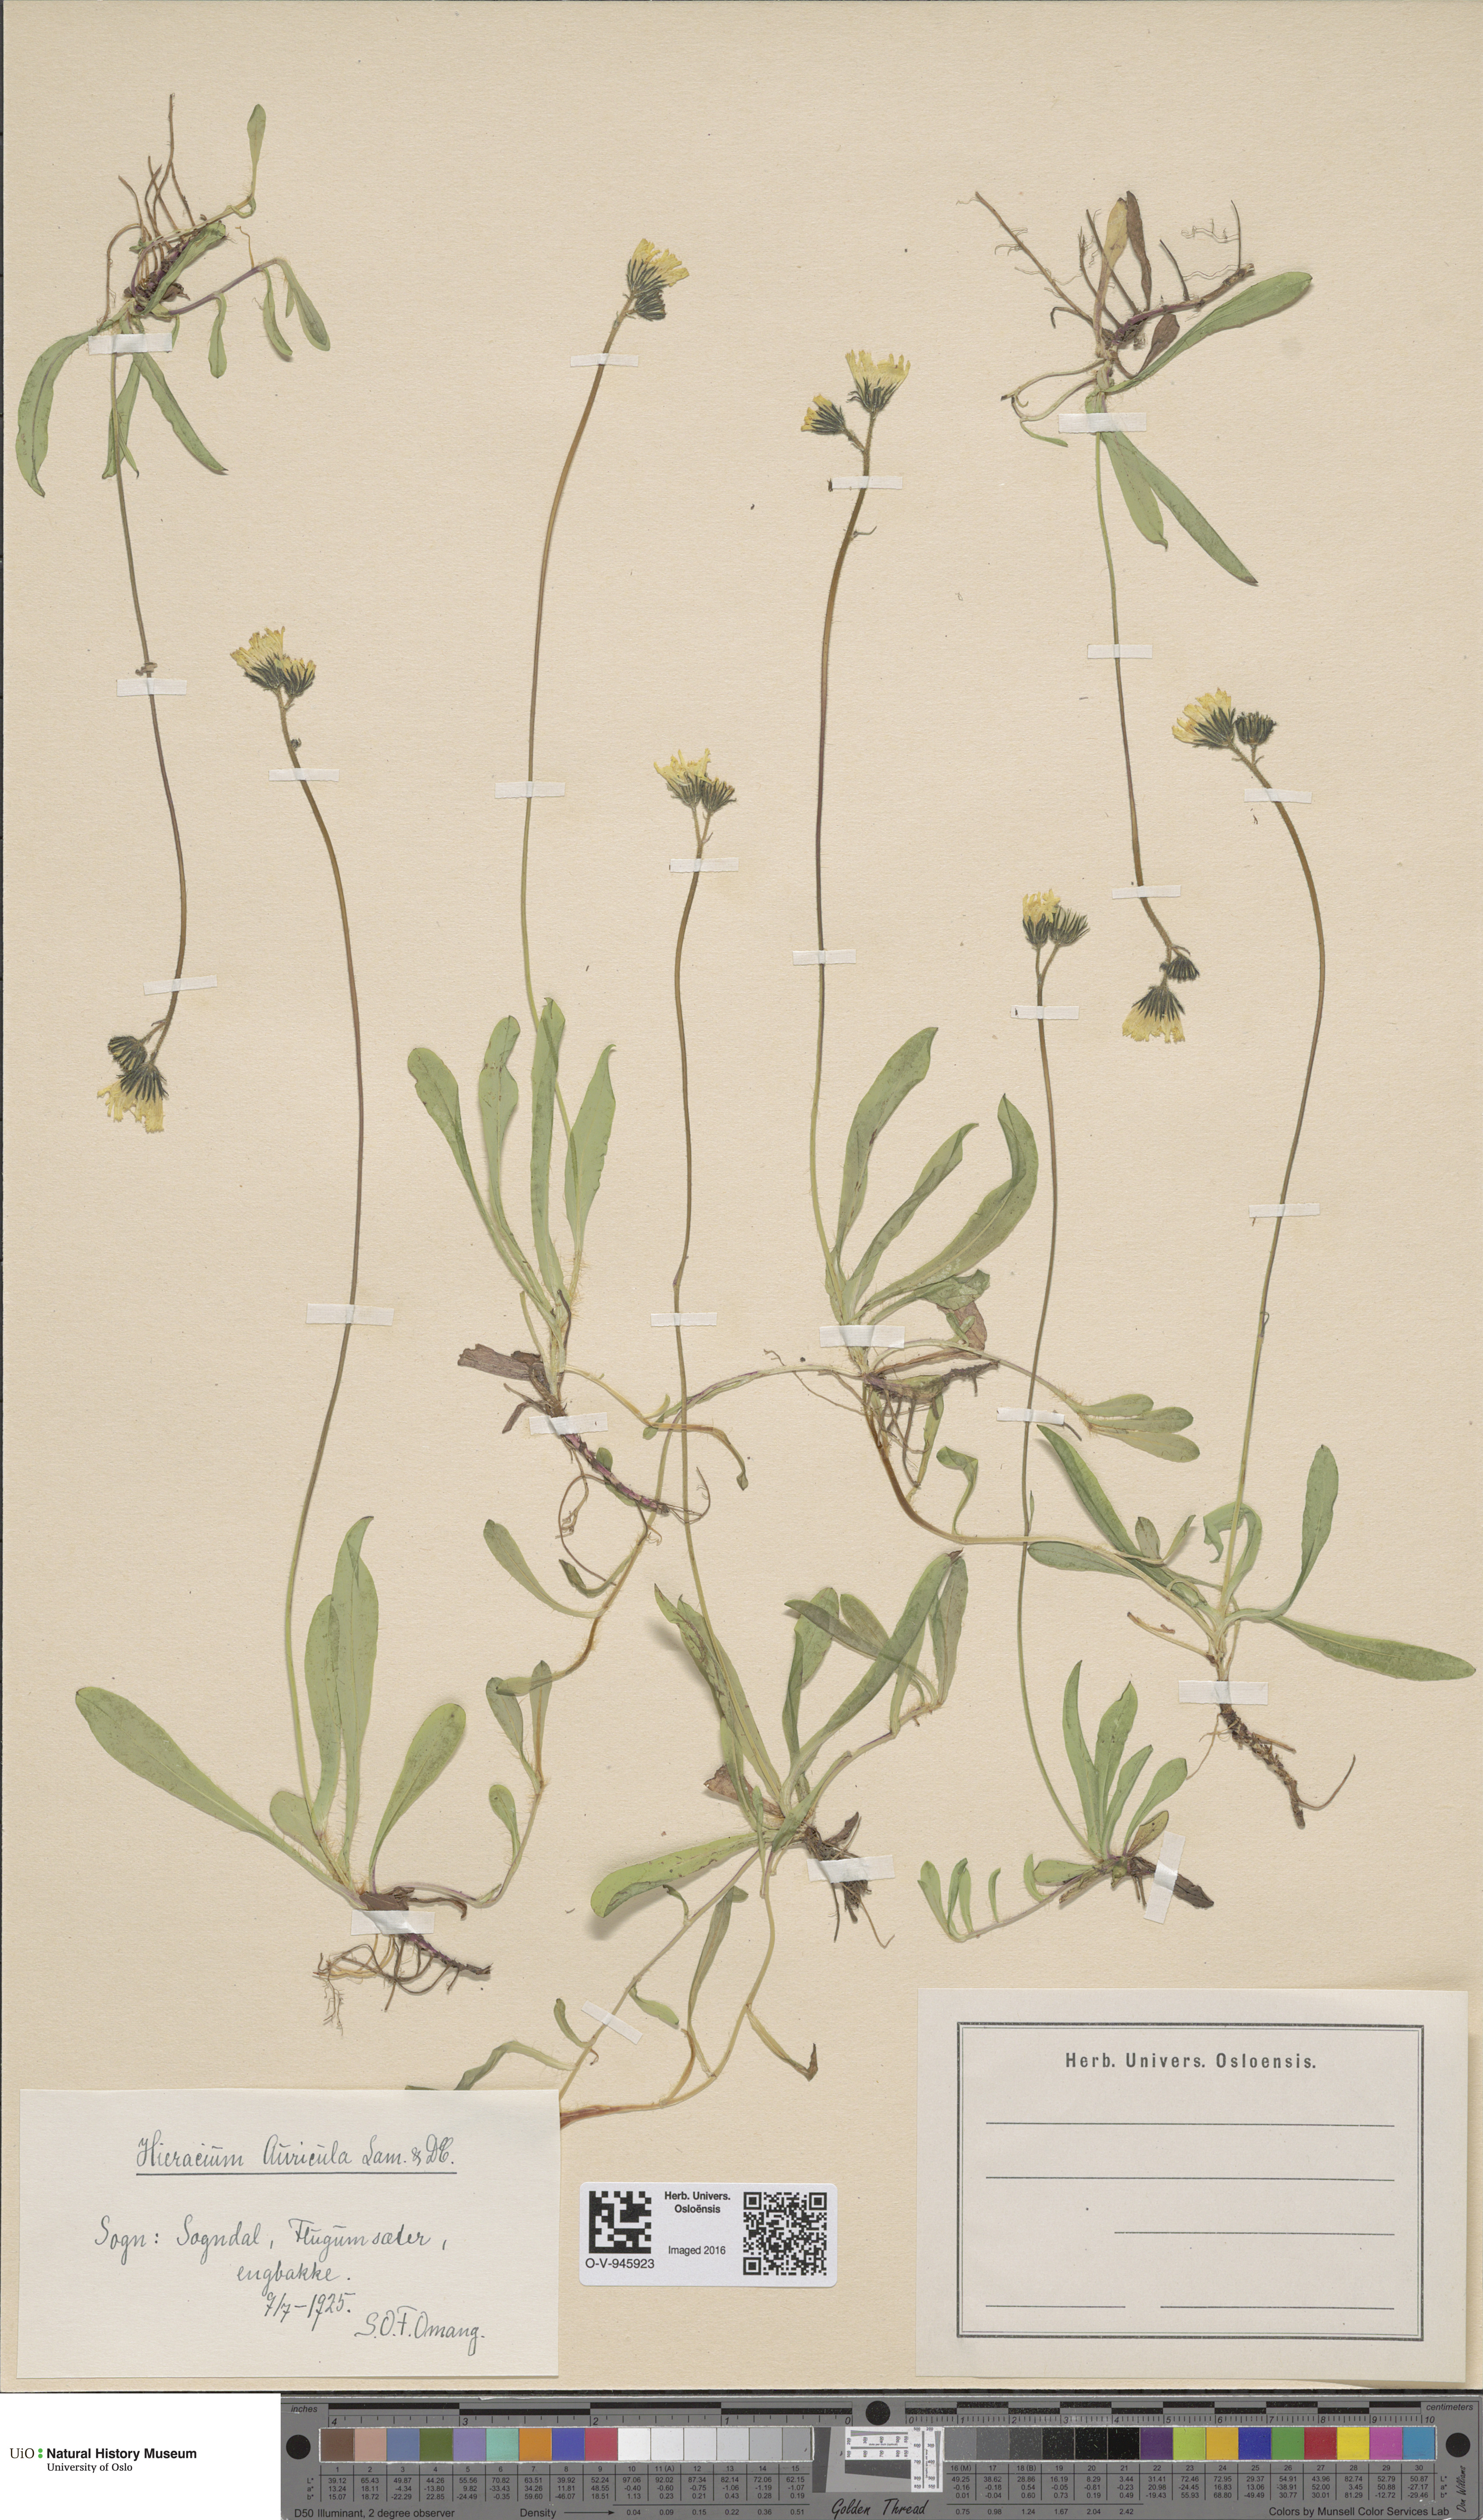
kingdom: Plantae
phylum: Tracheophyta
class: Magnoliopsida
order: Asterales
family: Asteraceae
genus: Pilosella
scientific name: Pilosella lactucella
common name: Glaucous fox-and-cubs
